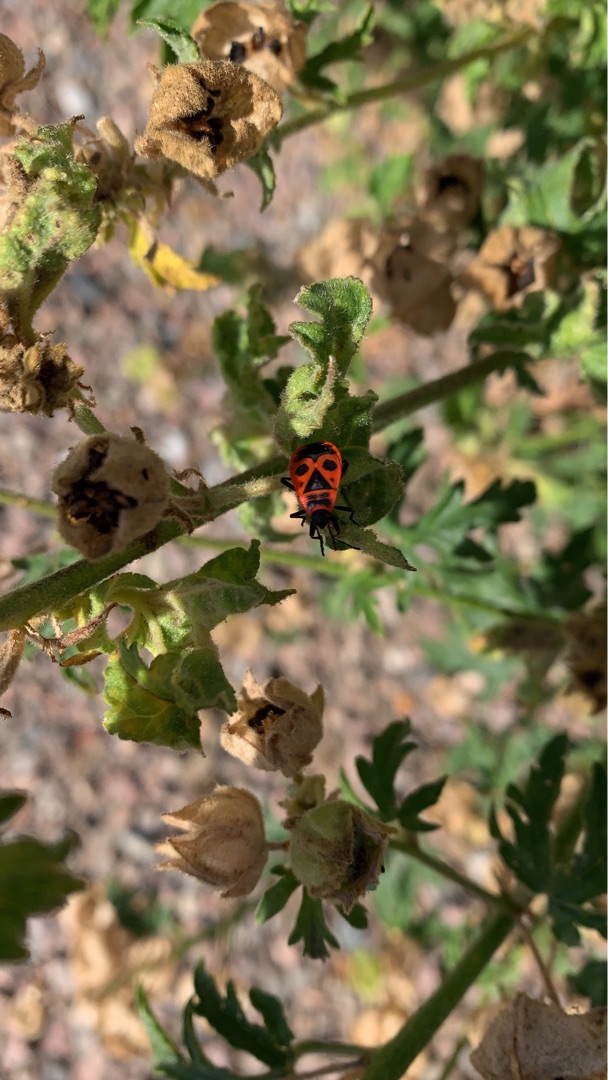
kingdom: Animalia
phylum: Arthropoda
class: Insecta
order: Hemiptera
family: Pyrrhocoridae
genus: Pyrrhocoris
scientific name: Pyrrhocoris apterus
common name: Ildtæge
